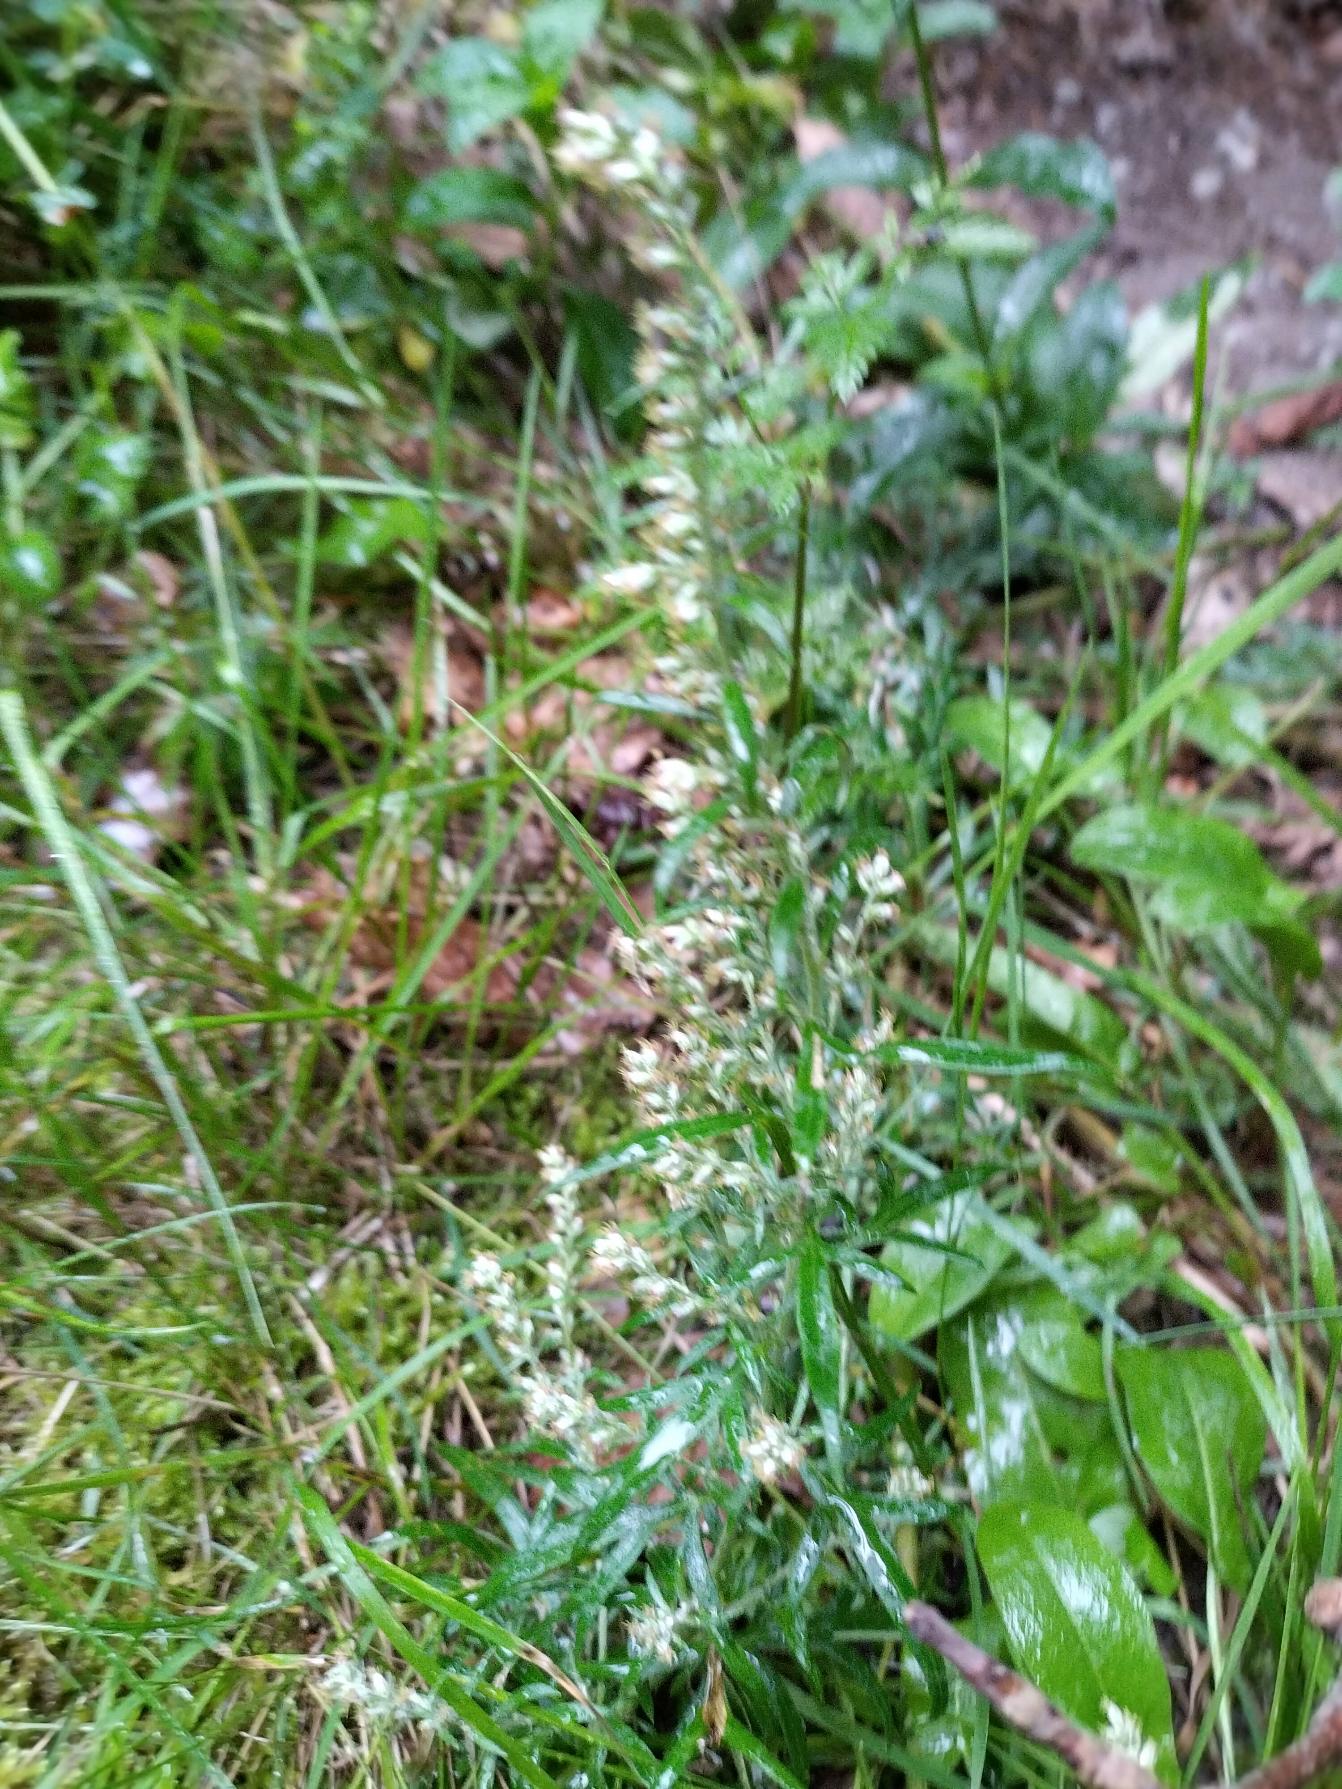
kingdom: Plantae
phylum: Tracheophyta
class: Magnoliopsida
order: Asterales
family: Asteraceae
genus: Artemisia
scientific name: Artemisia vulgaris
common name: Grå-bynke
